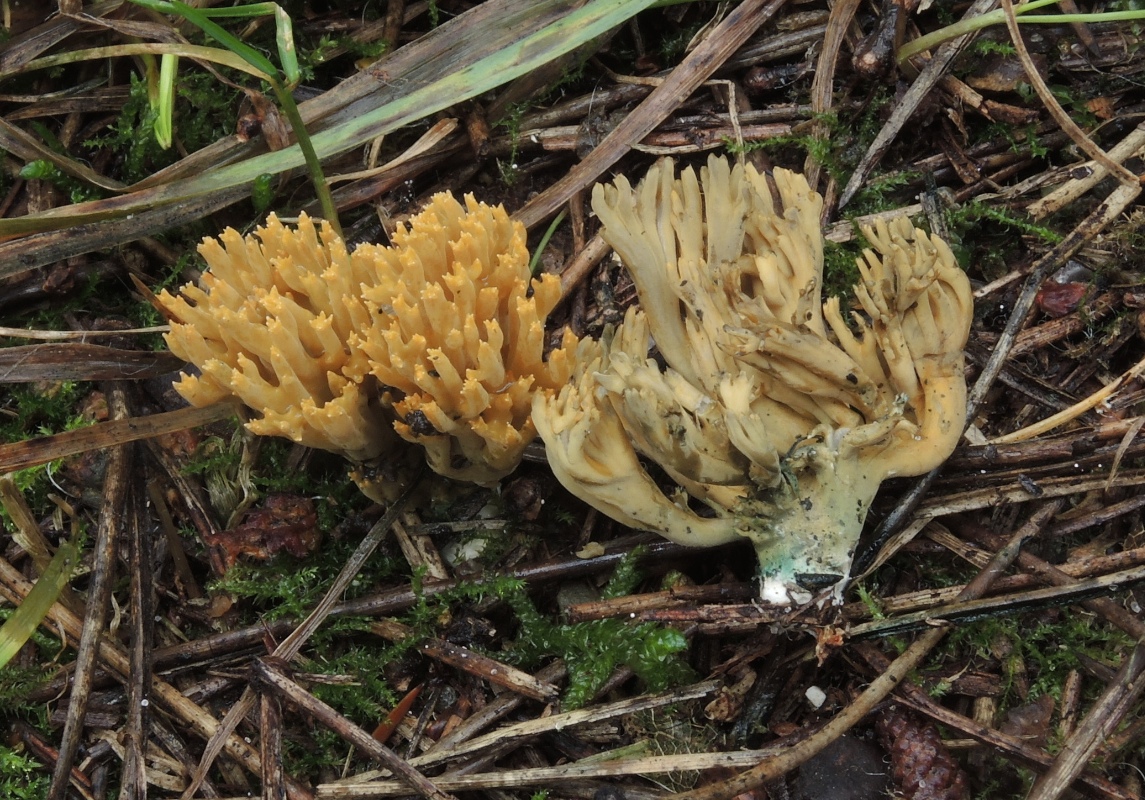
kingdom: Fungi
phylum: Basidiomycota
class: Agaricomycetes
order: Gomphales
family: Gomphaceae
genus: Phaeoclavulina
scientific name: Phaeoclavulina abietina
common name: gulgrøn koralsvamp
